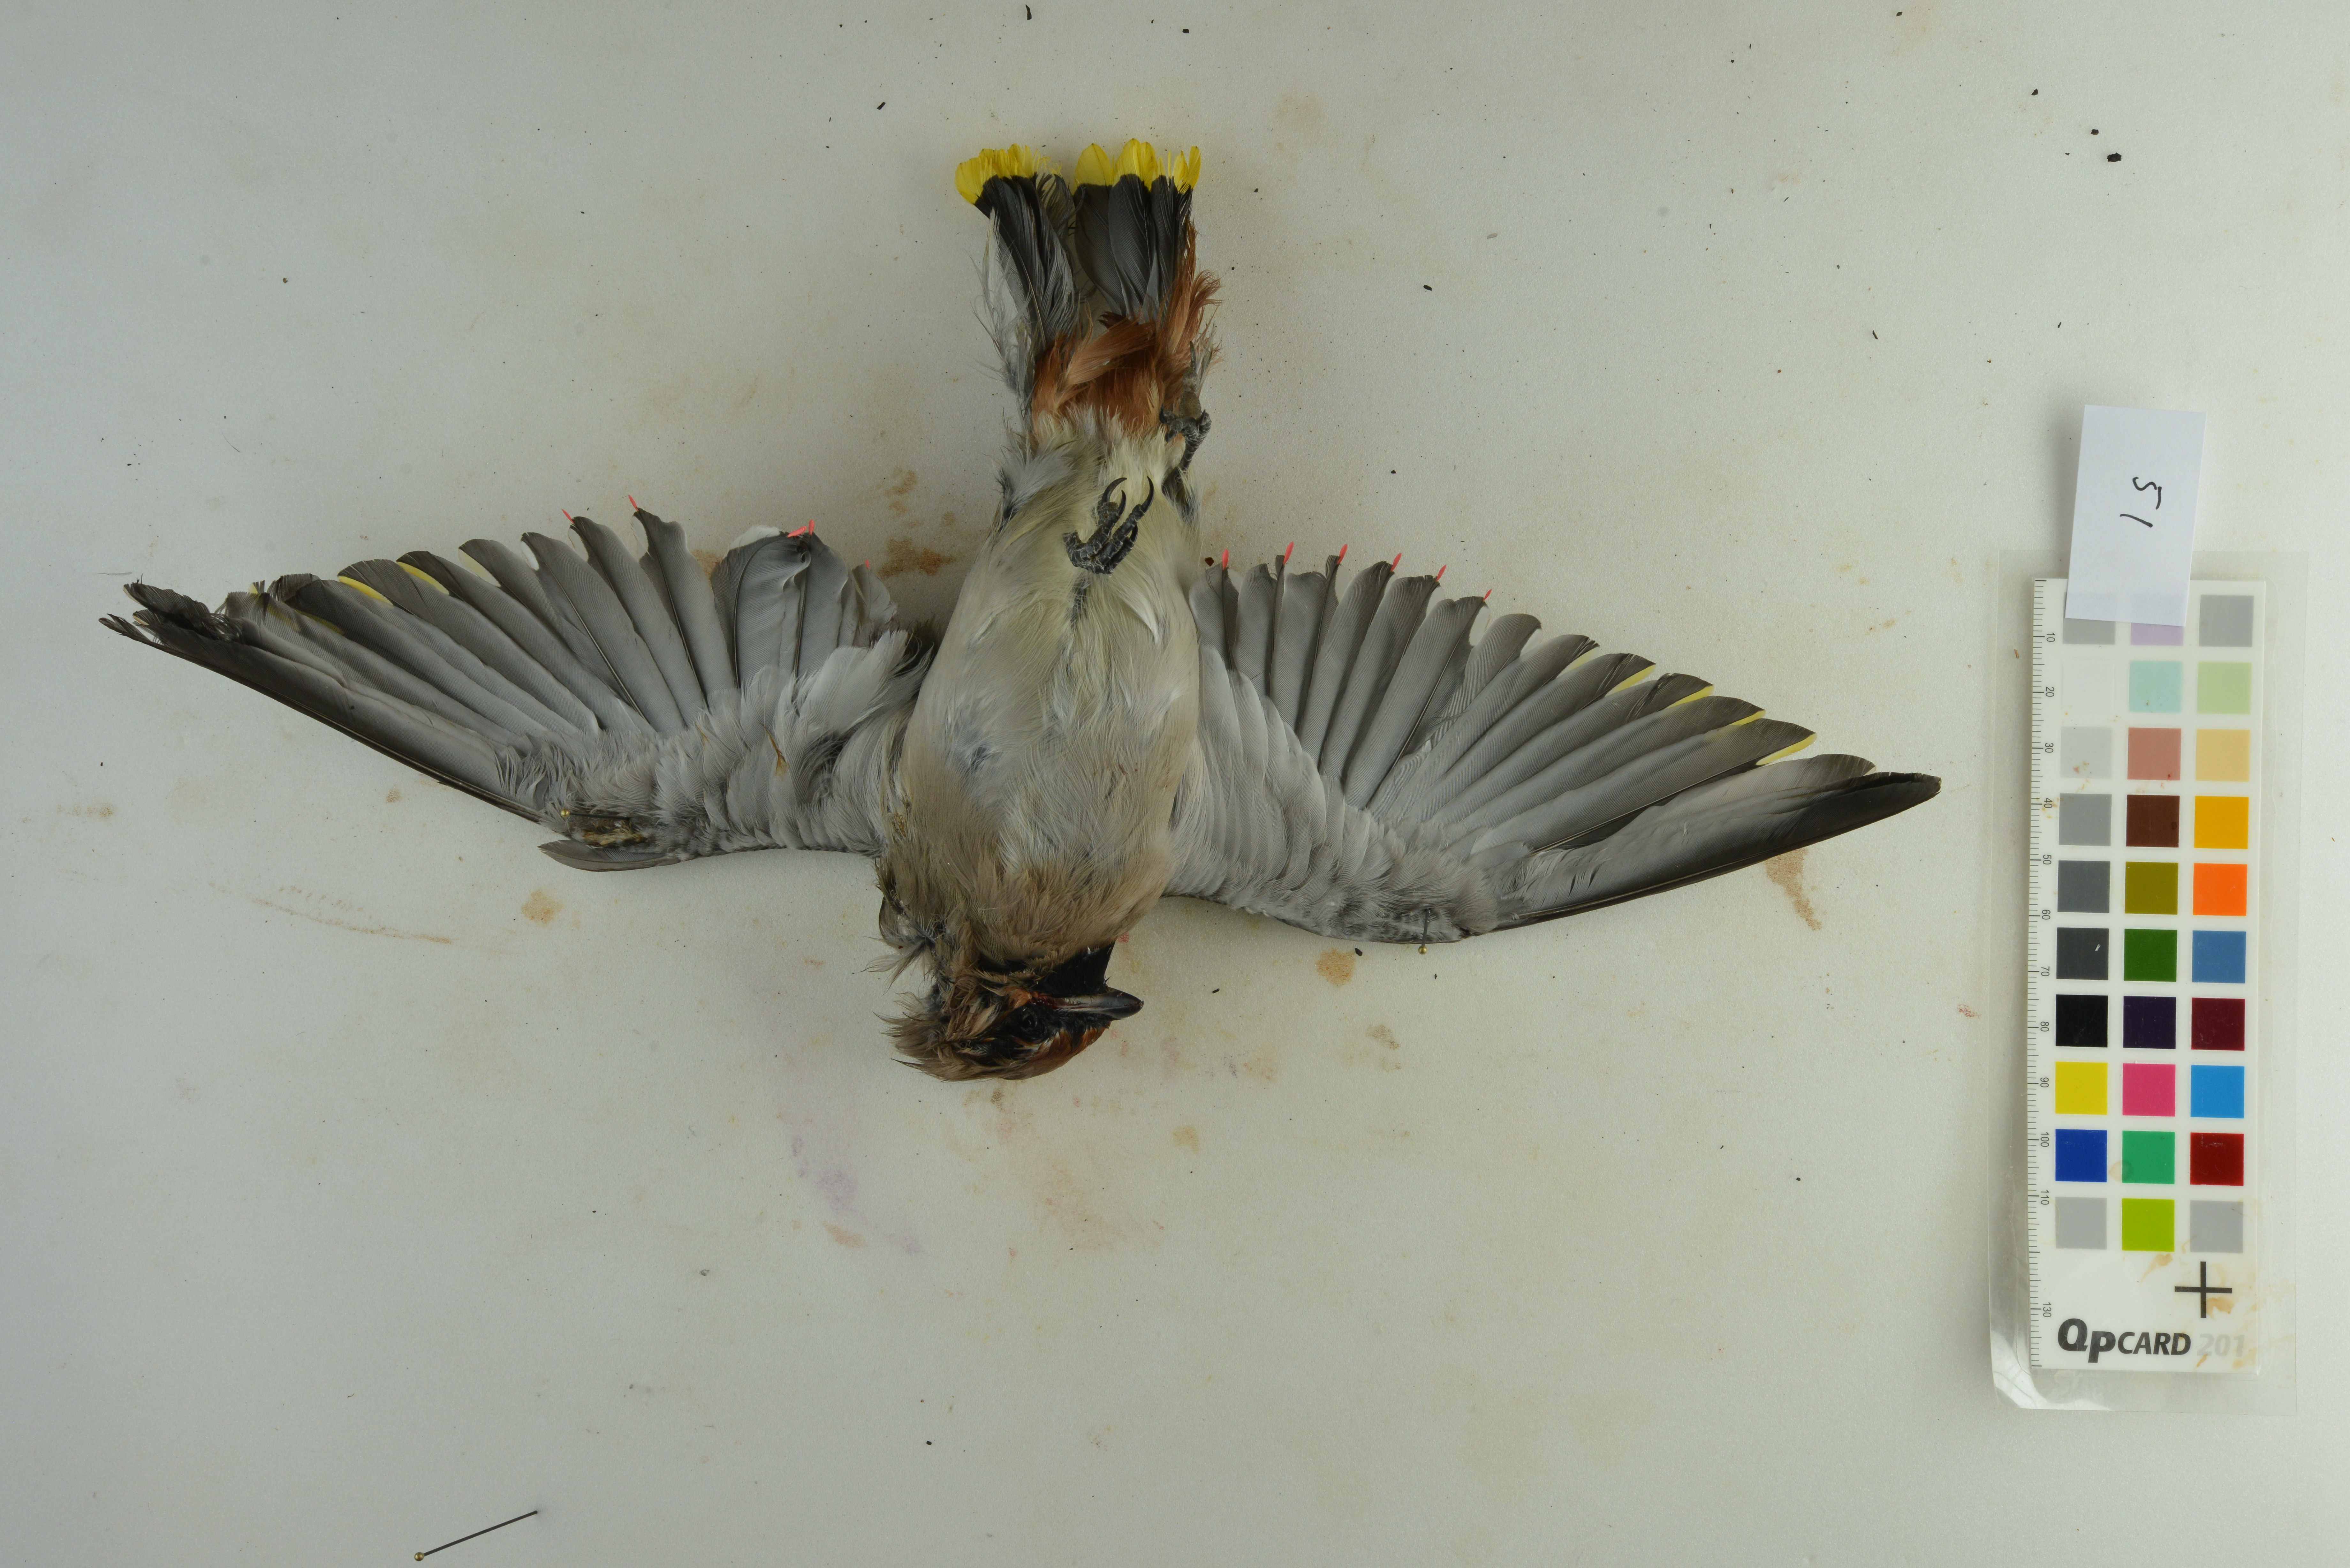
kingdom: Animalia
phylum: Chordata
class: Aves
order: Passeriformes
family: Bombycillidae
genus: Bombycilla
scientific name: Bombycilla garrulus
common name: Bohemian waxwing
